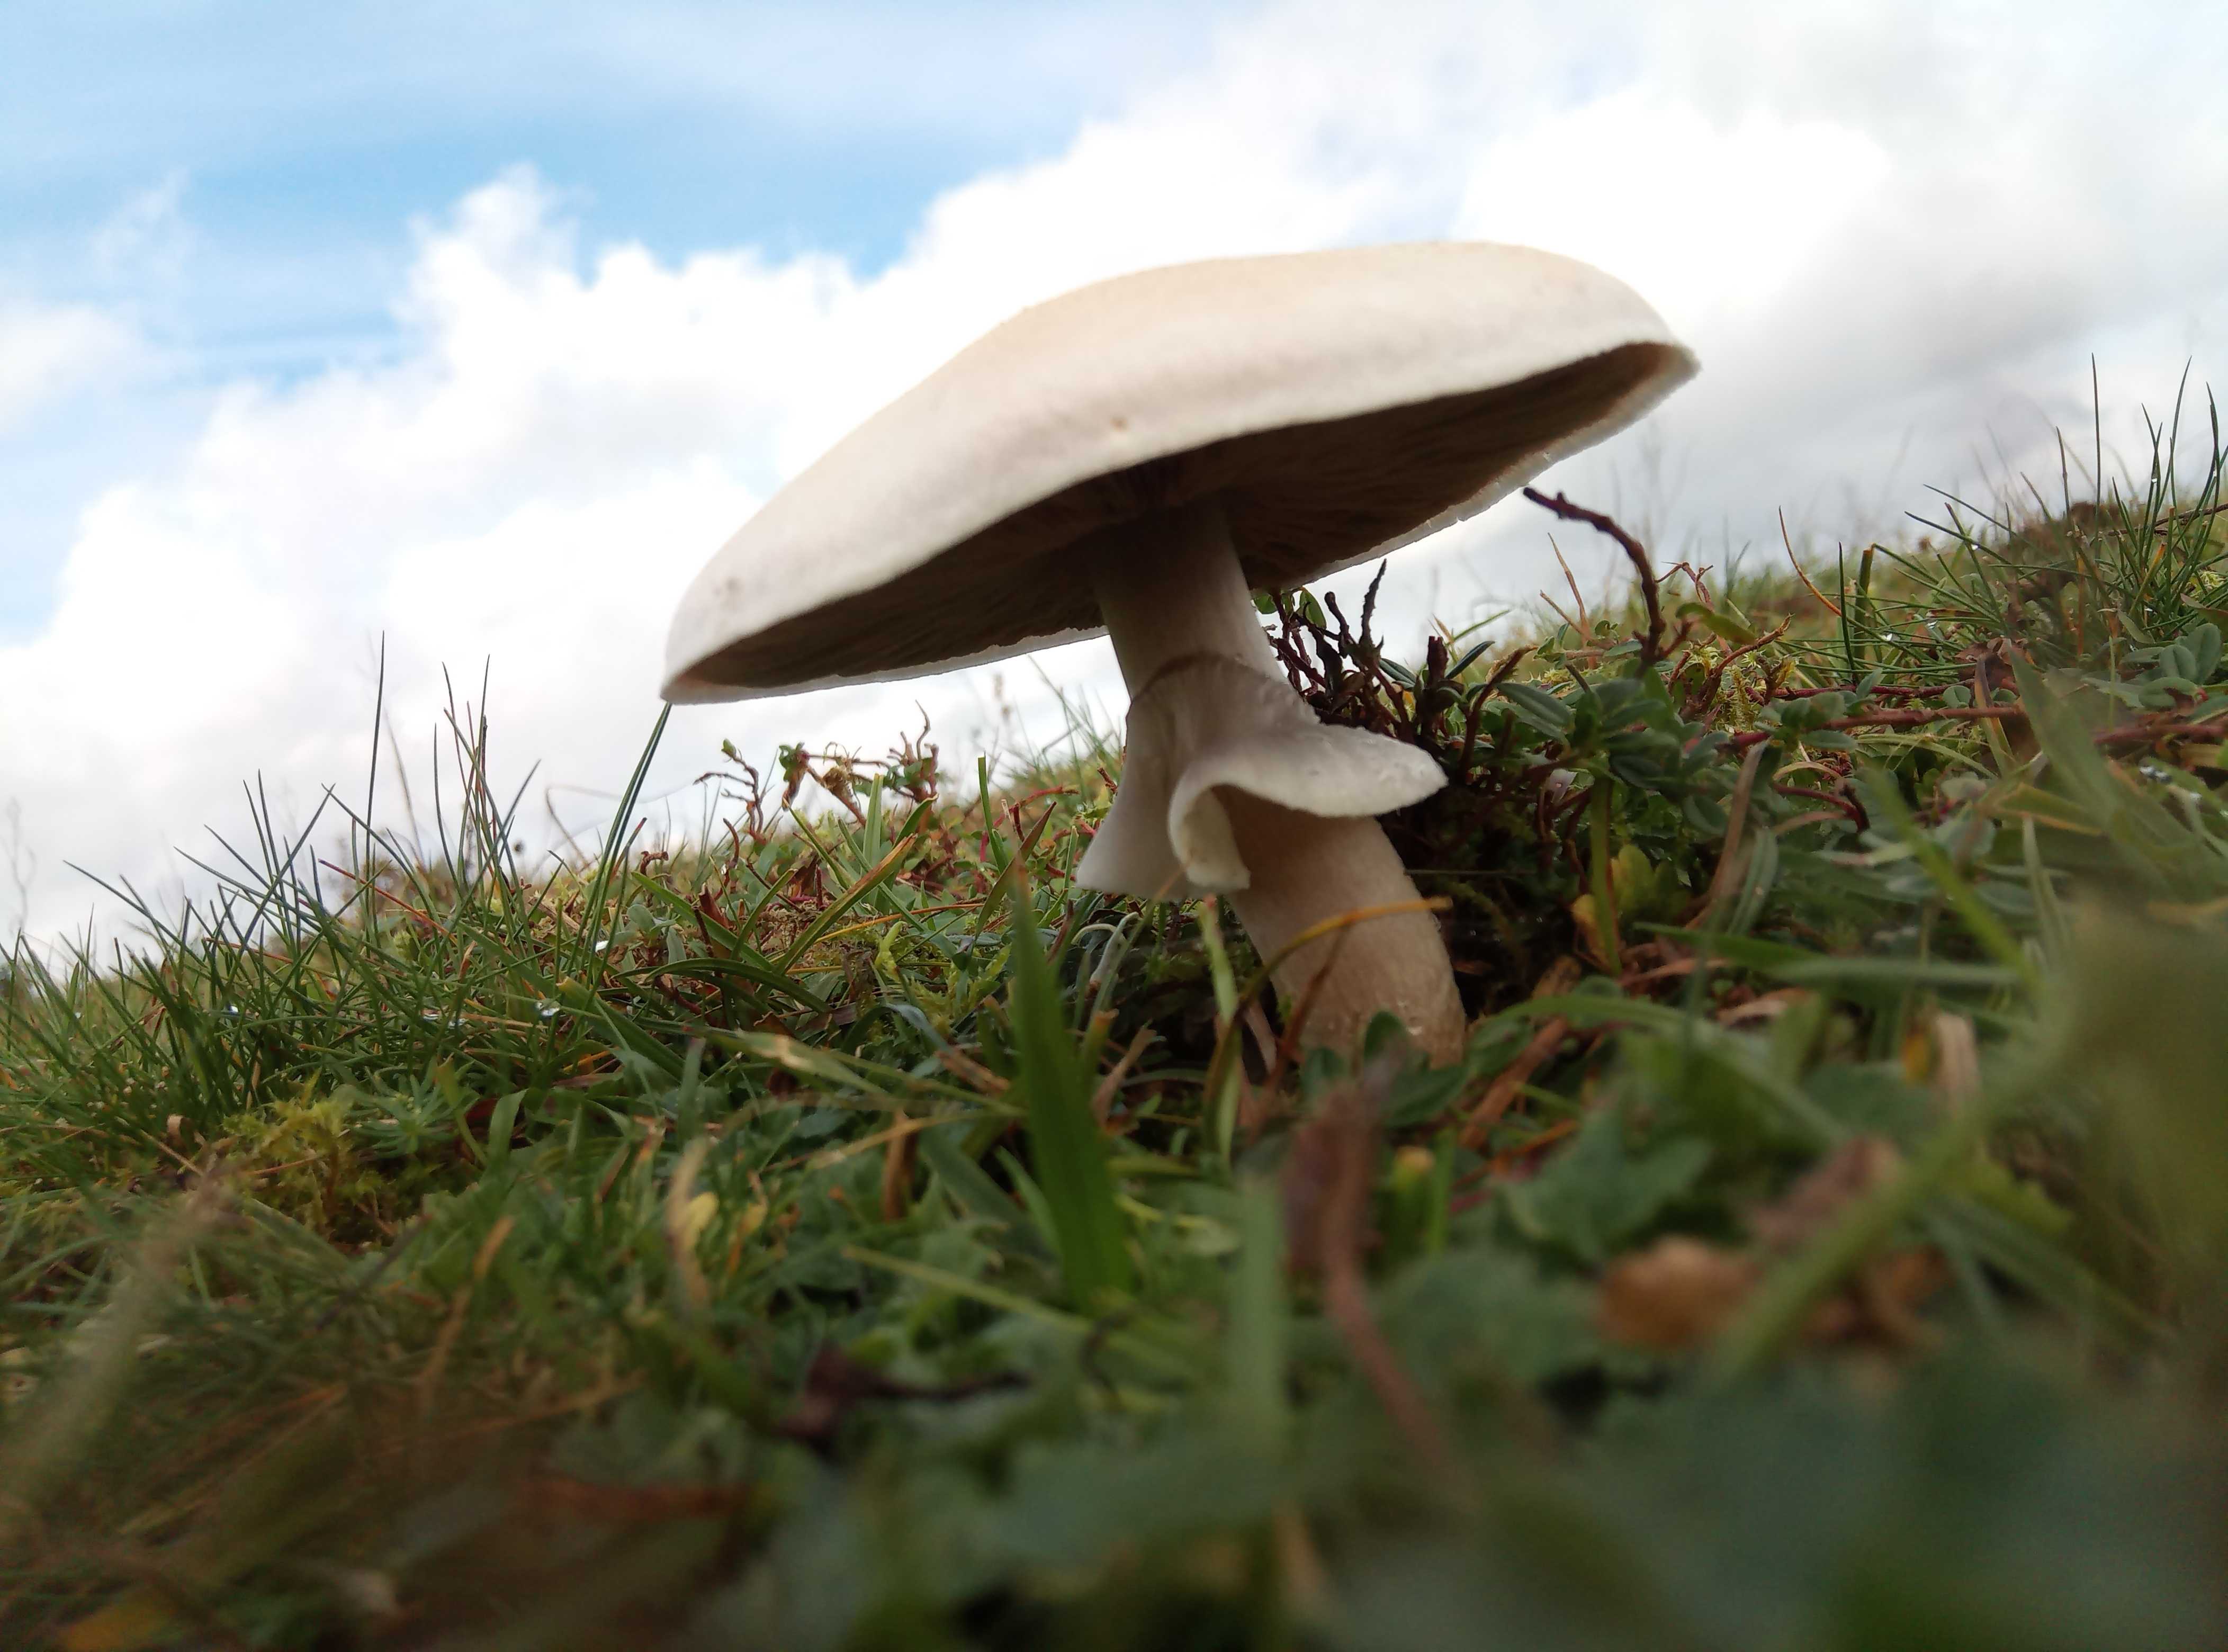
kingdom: Fungi
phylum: Basidiomycota
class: Agaricomycetes
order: Agaricales
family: Agaricaceae
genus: Agaricus
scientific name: Agaricus
